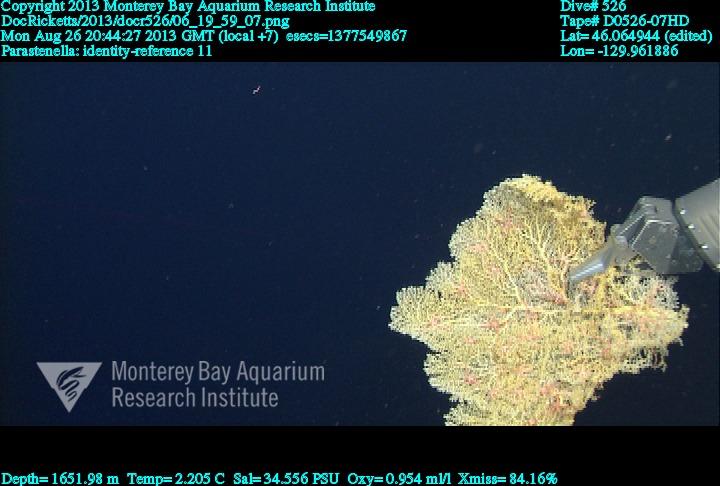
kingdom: Animalia
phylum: Cnidaria
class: Anthozoa
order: Scleralcyonacea
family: Primnoidae
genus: Parastenella
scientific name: Parastenella
